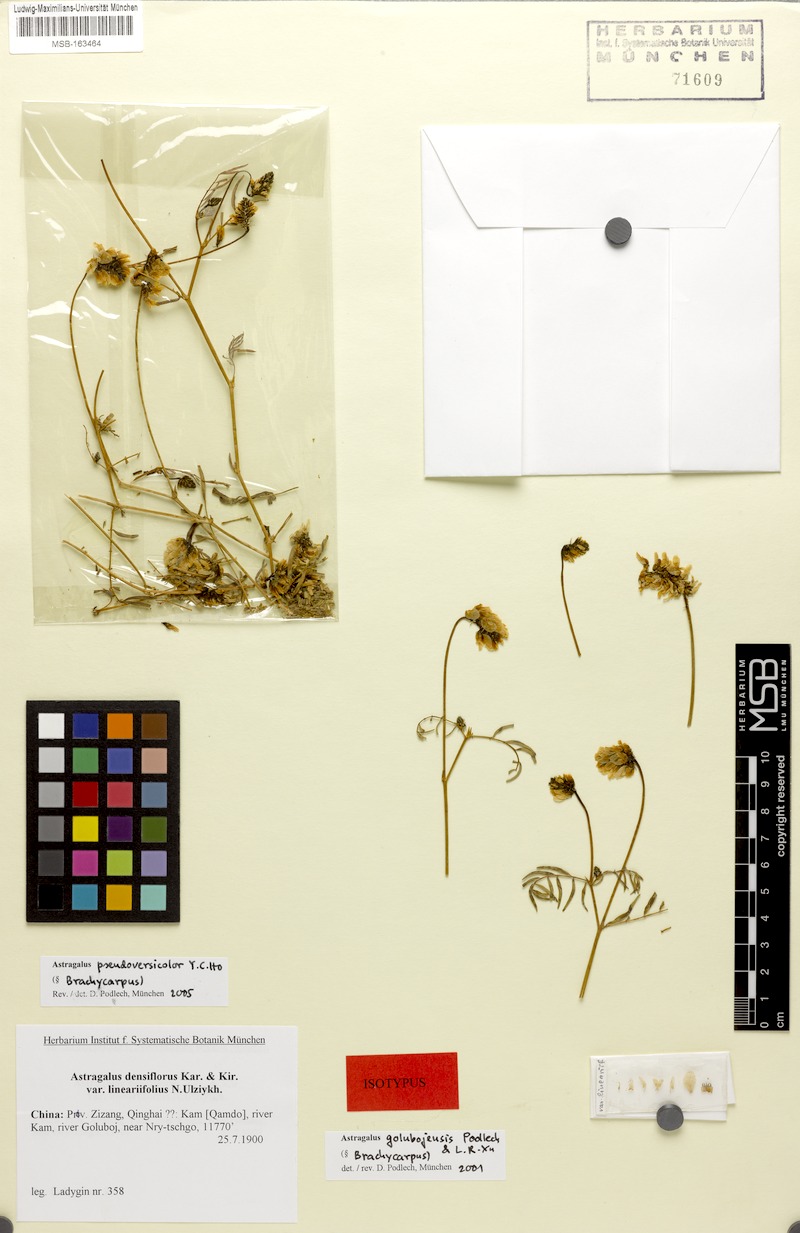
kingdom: Plantae
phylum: Tracheophyta
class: Magnoliopsida
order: Fabales
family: Fabaceae
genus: Astragalus
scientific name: Astragalus pseudoversicolor
